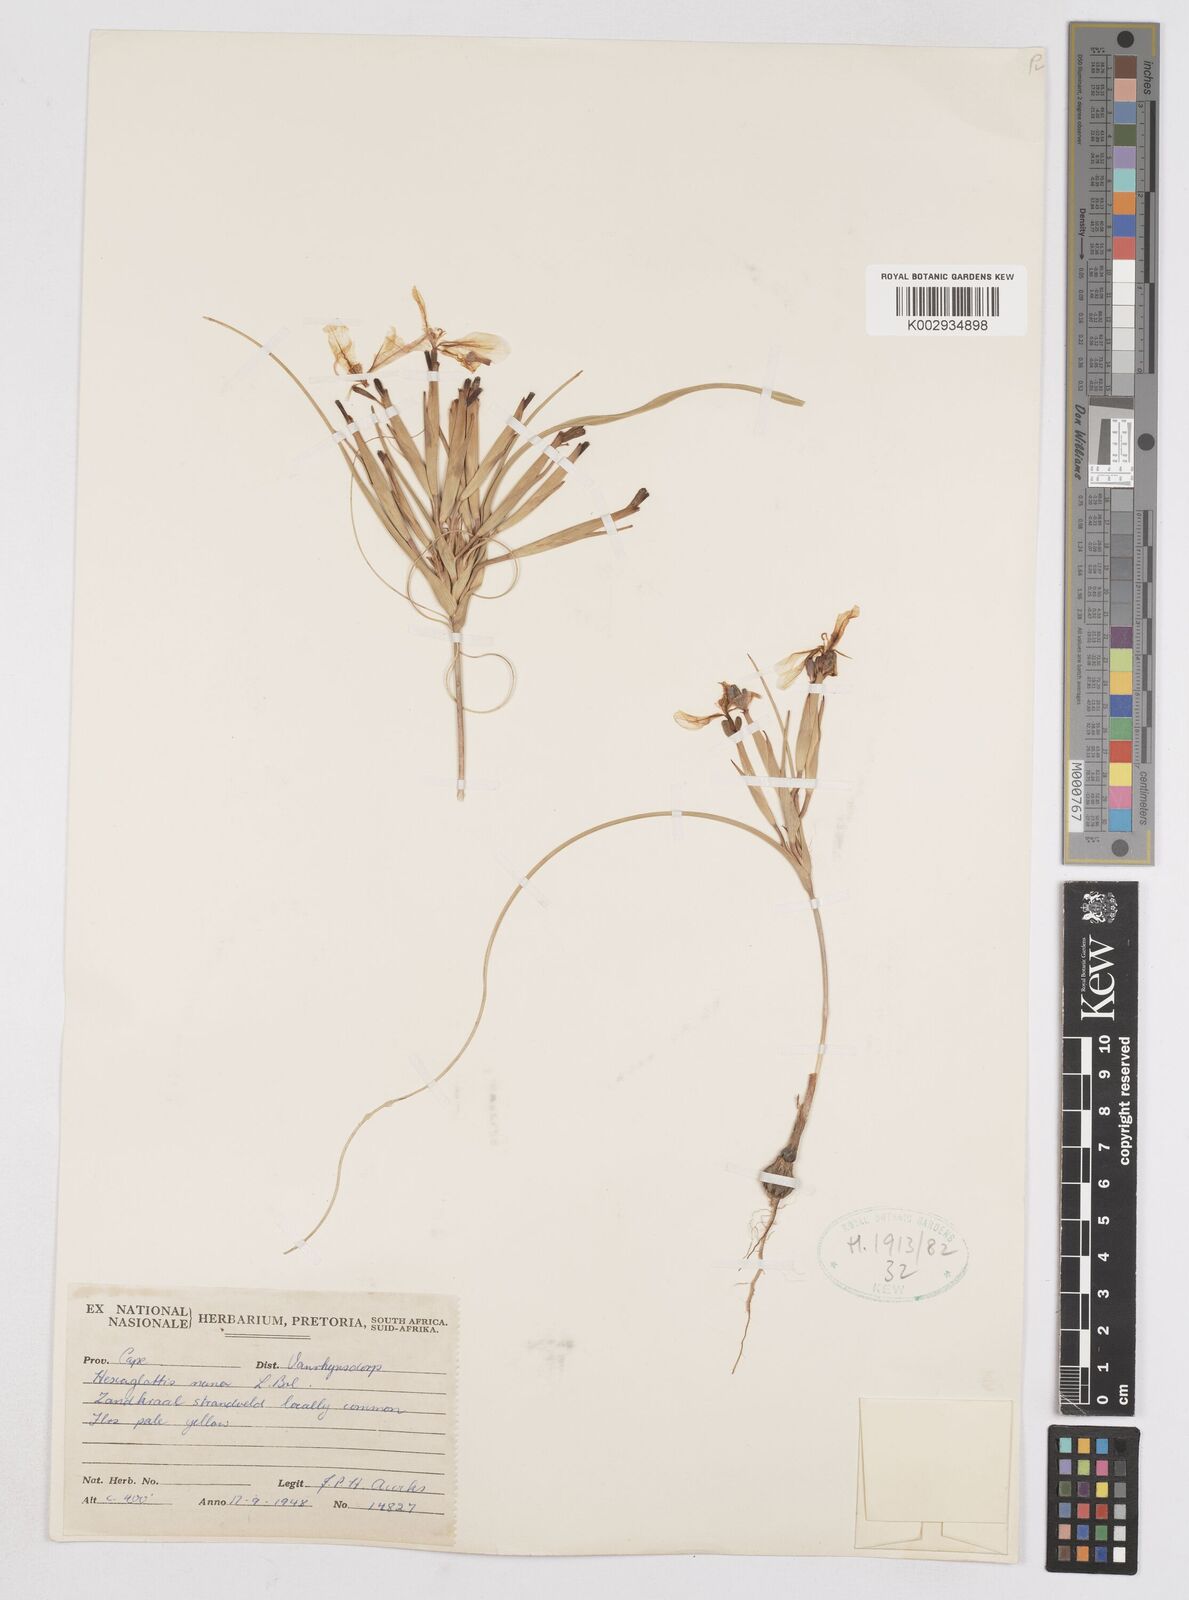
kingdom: Plantae
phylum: Tracheophyta
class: Liliopsida
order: Asparagales
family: Iridaceae
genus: Moraea
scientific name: Moraea nana
